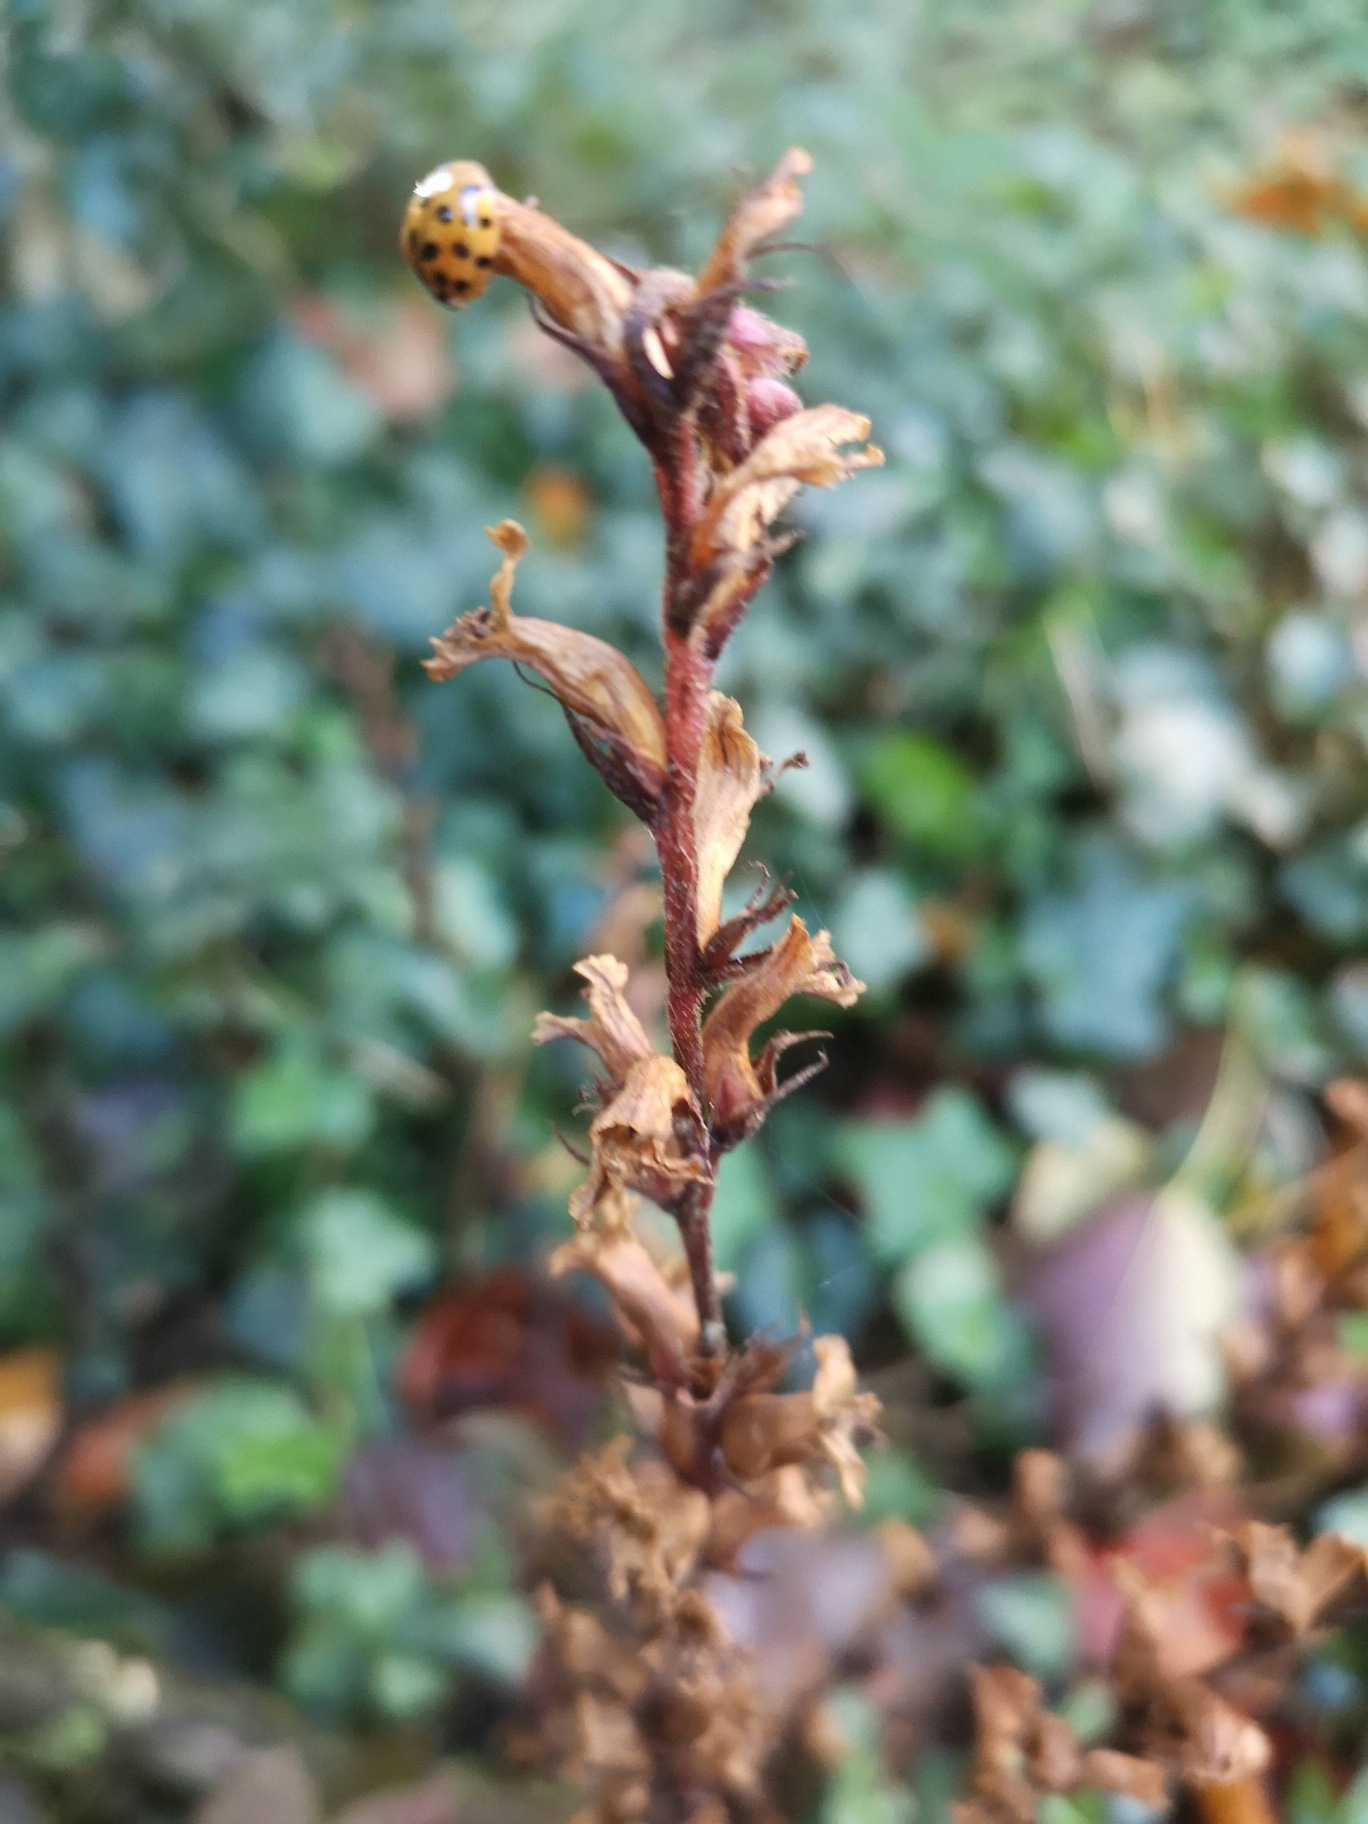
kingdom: Plantae
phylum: Tracheophyta
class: Magnoliopsida
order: Lamiales
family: Orobanchaceae
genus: Orobanche
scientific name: Orobanche hederae
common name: Vedbend-gyvelkvæler
